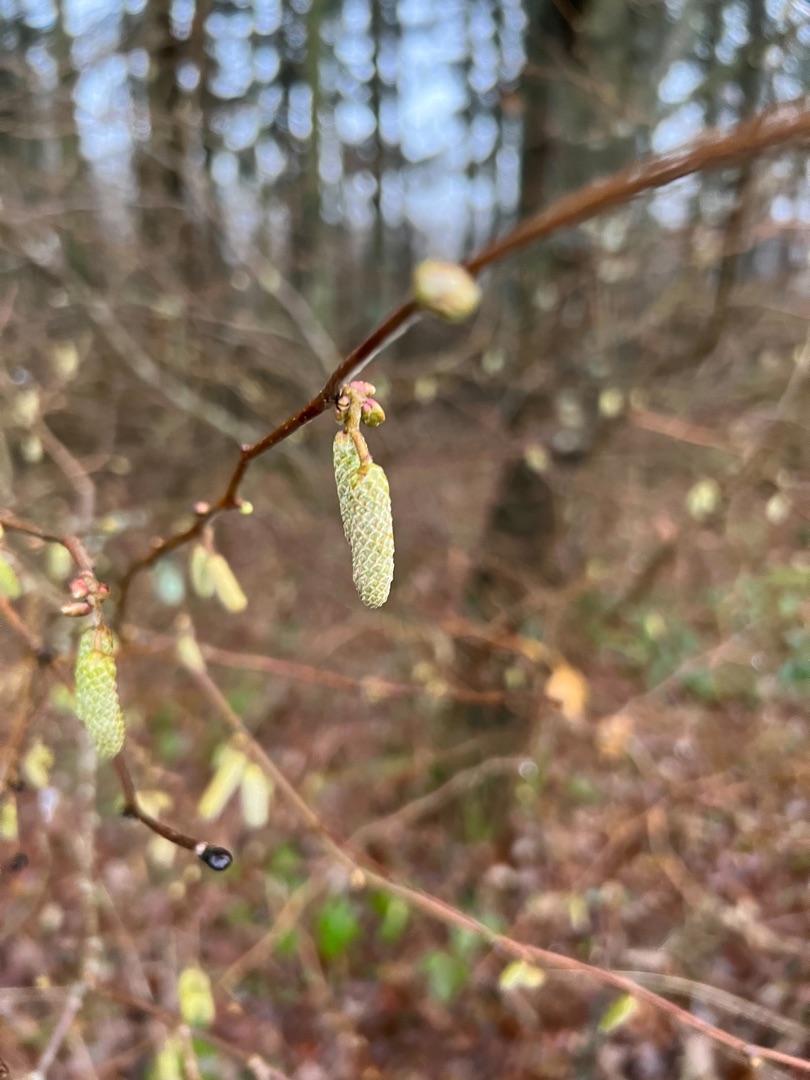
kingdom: Plantae
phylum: Tracheophyta
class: Magnoliopsida
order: Fagales
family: Betulaceae
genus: Corylus
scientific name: Corylus avellana
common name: Hassel
